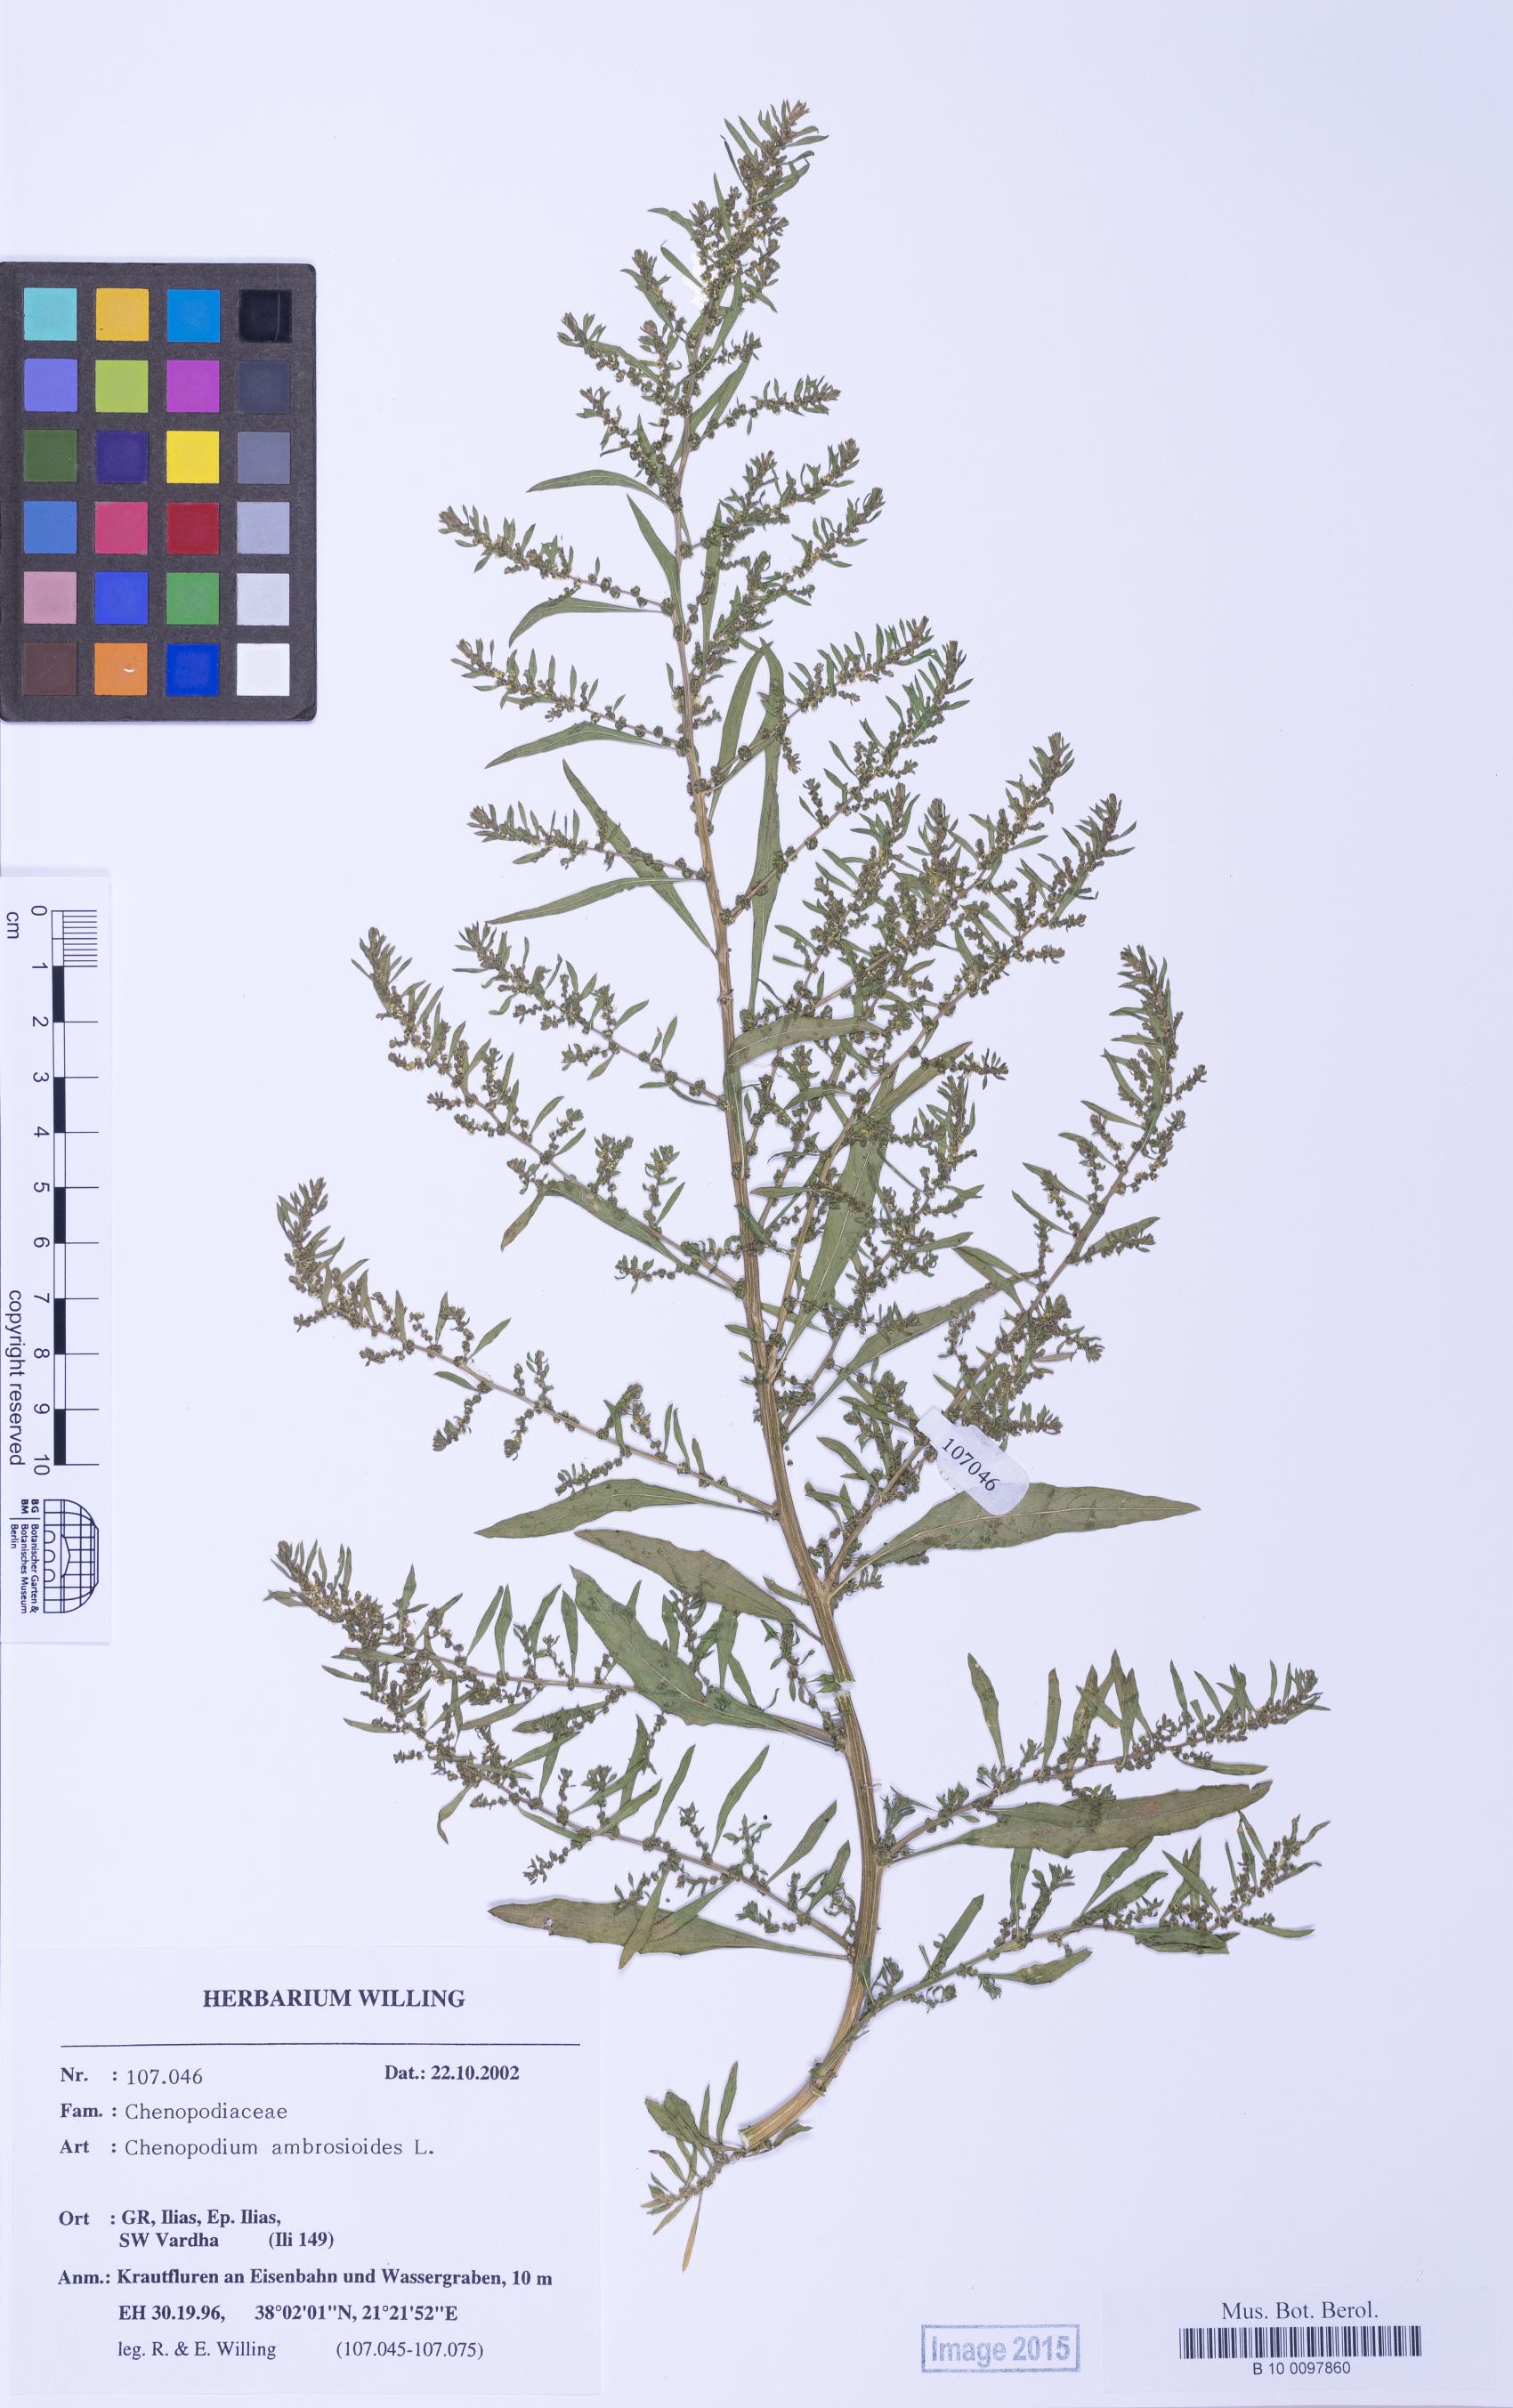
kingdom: Plantae
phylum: Tracheophyta
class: Magnoliopsida
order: Caryophyllales
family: Amaranthaceae
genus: Dysphania
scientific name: Dysphania ambrosioides
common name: Wormseed
